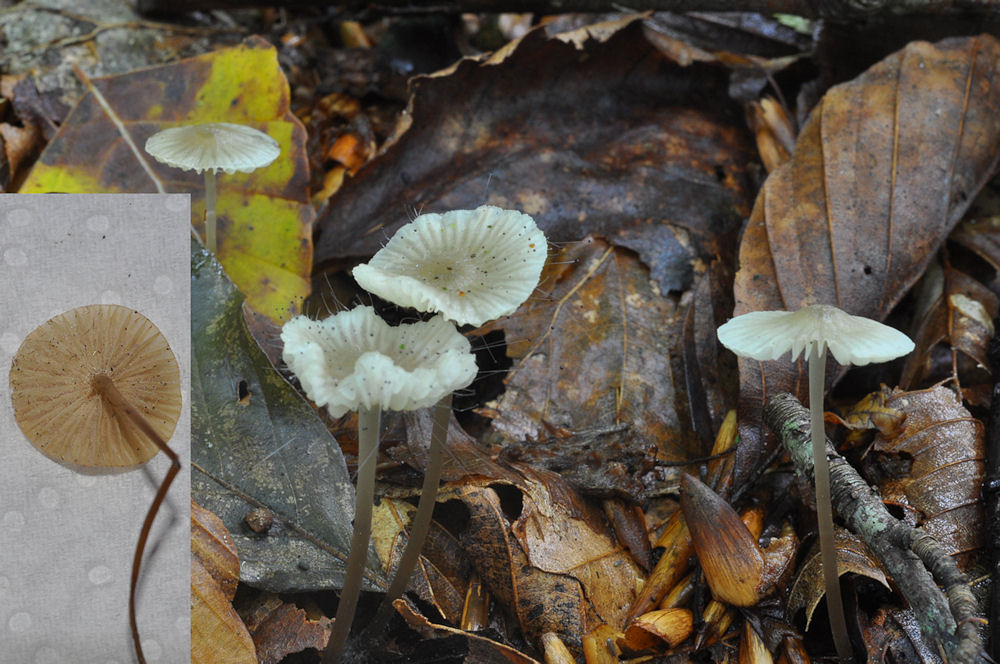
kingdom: Fungi
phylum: Basidiomycota
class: Agaricomycetes
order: Agaricales
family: Mycenaceae
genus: Mycena
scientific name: Mycena flavescens
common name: grågul huesvamp
